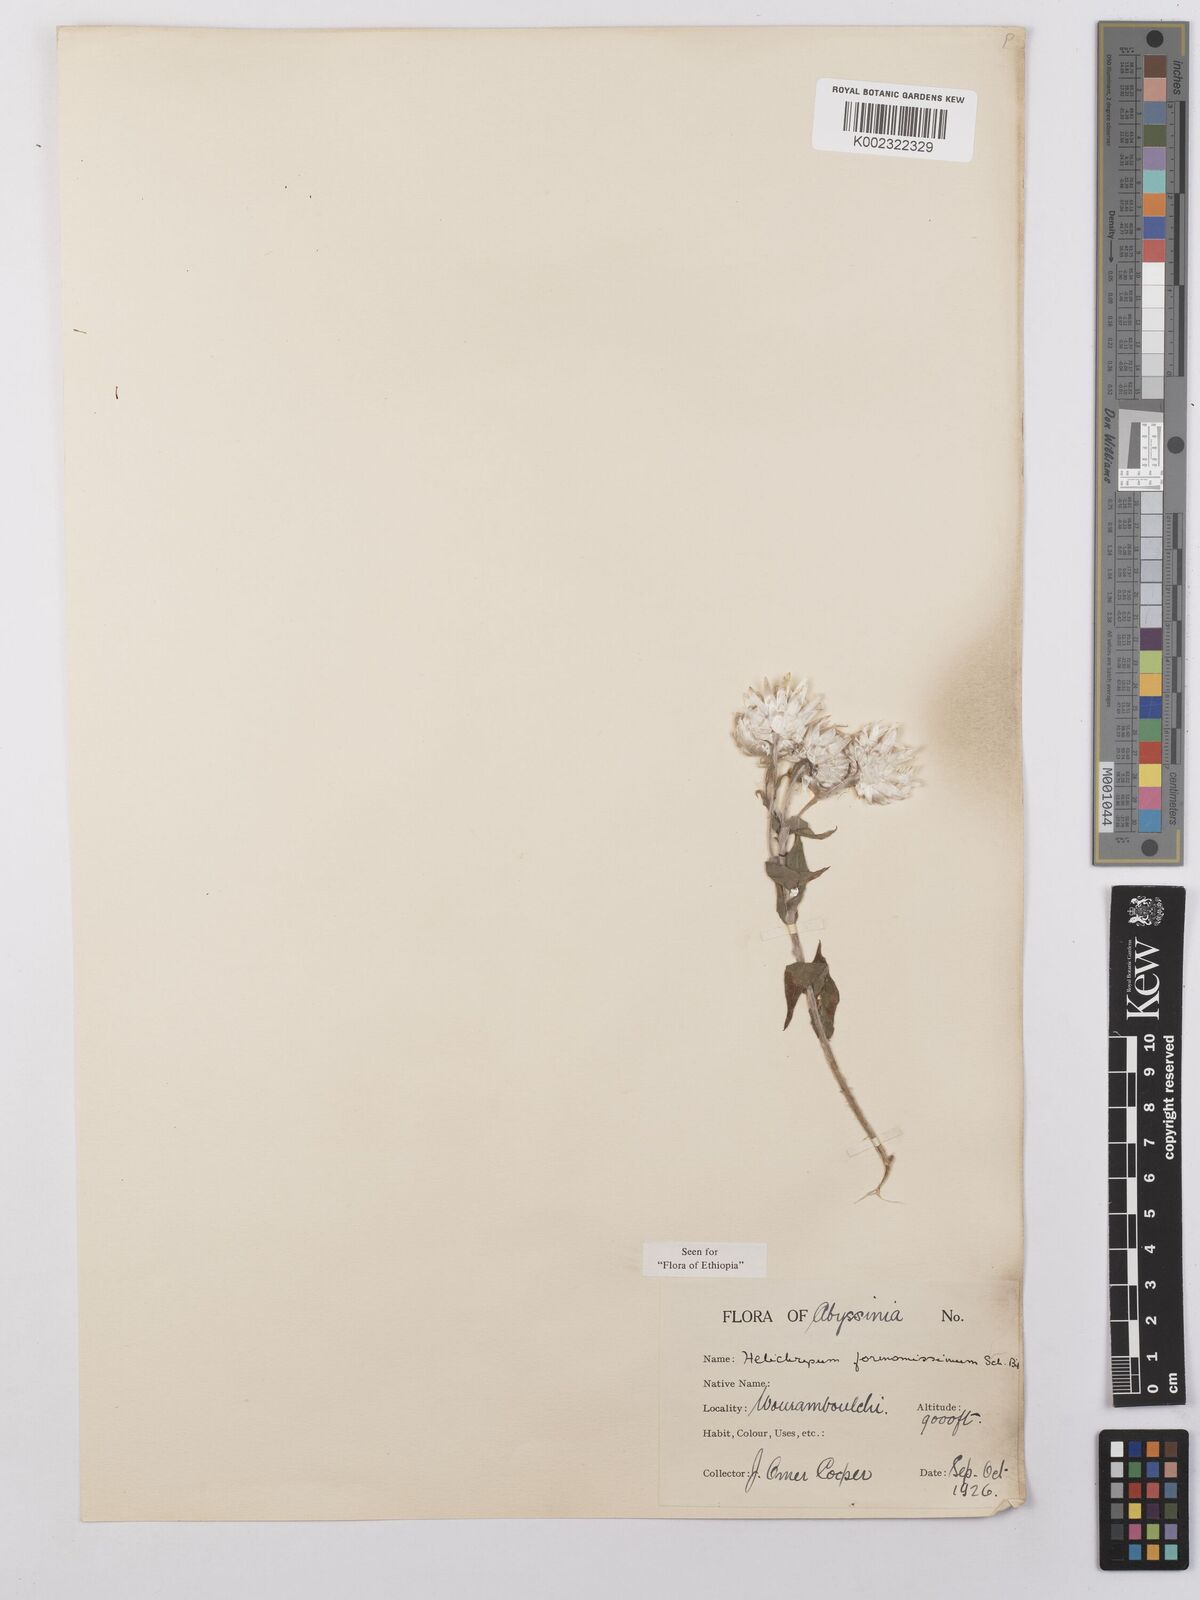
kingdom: Plantae
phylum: Tracheophyta
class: Magnoliopsida
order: Asterales
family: Asteraceae
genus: Helichrysum
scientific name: Helichrysum formosissimum
